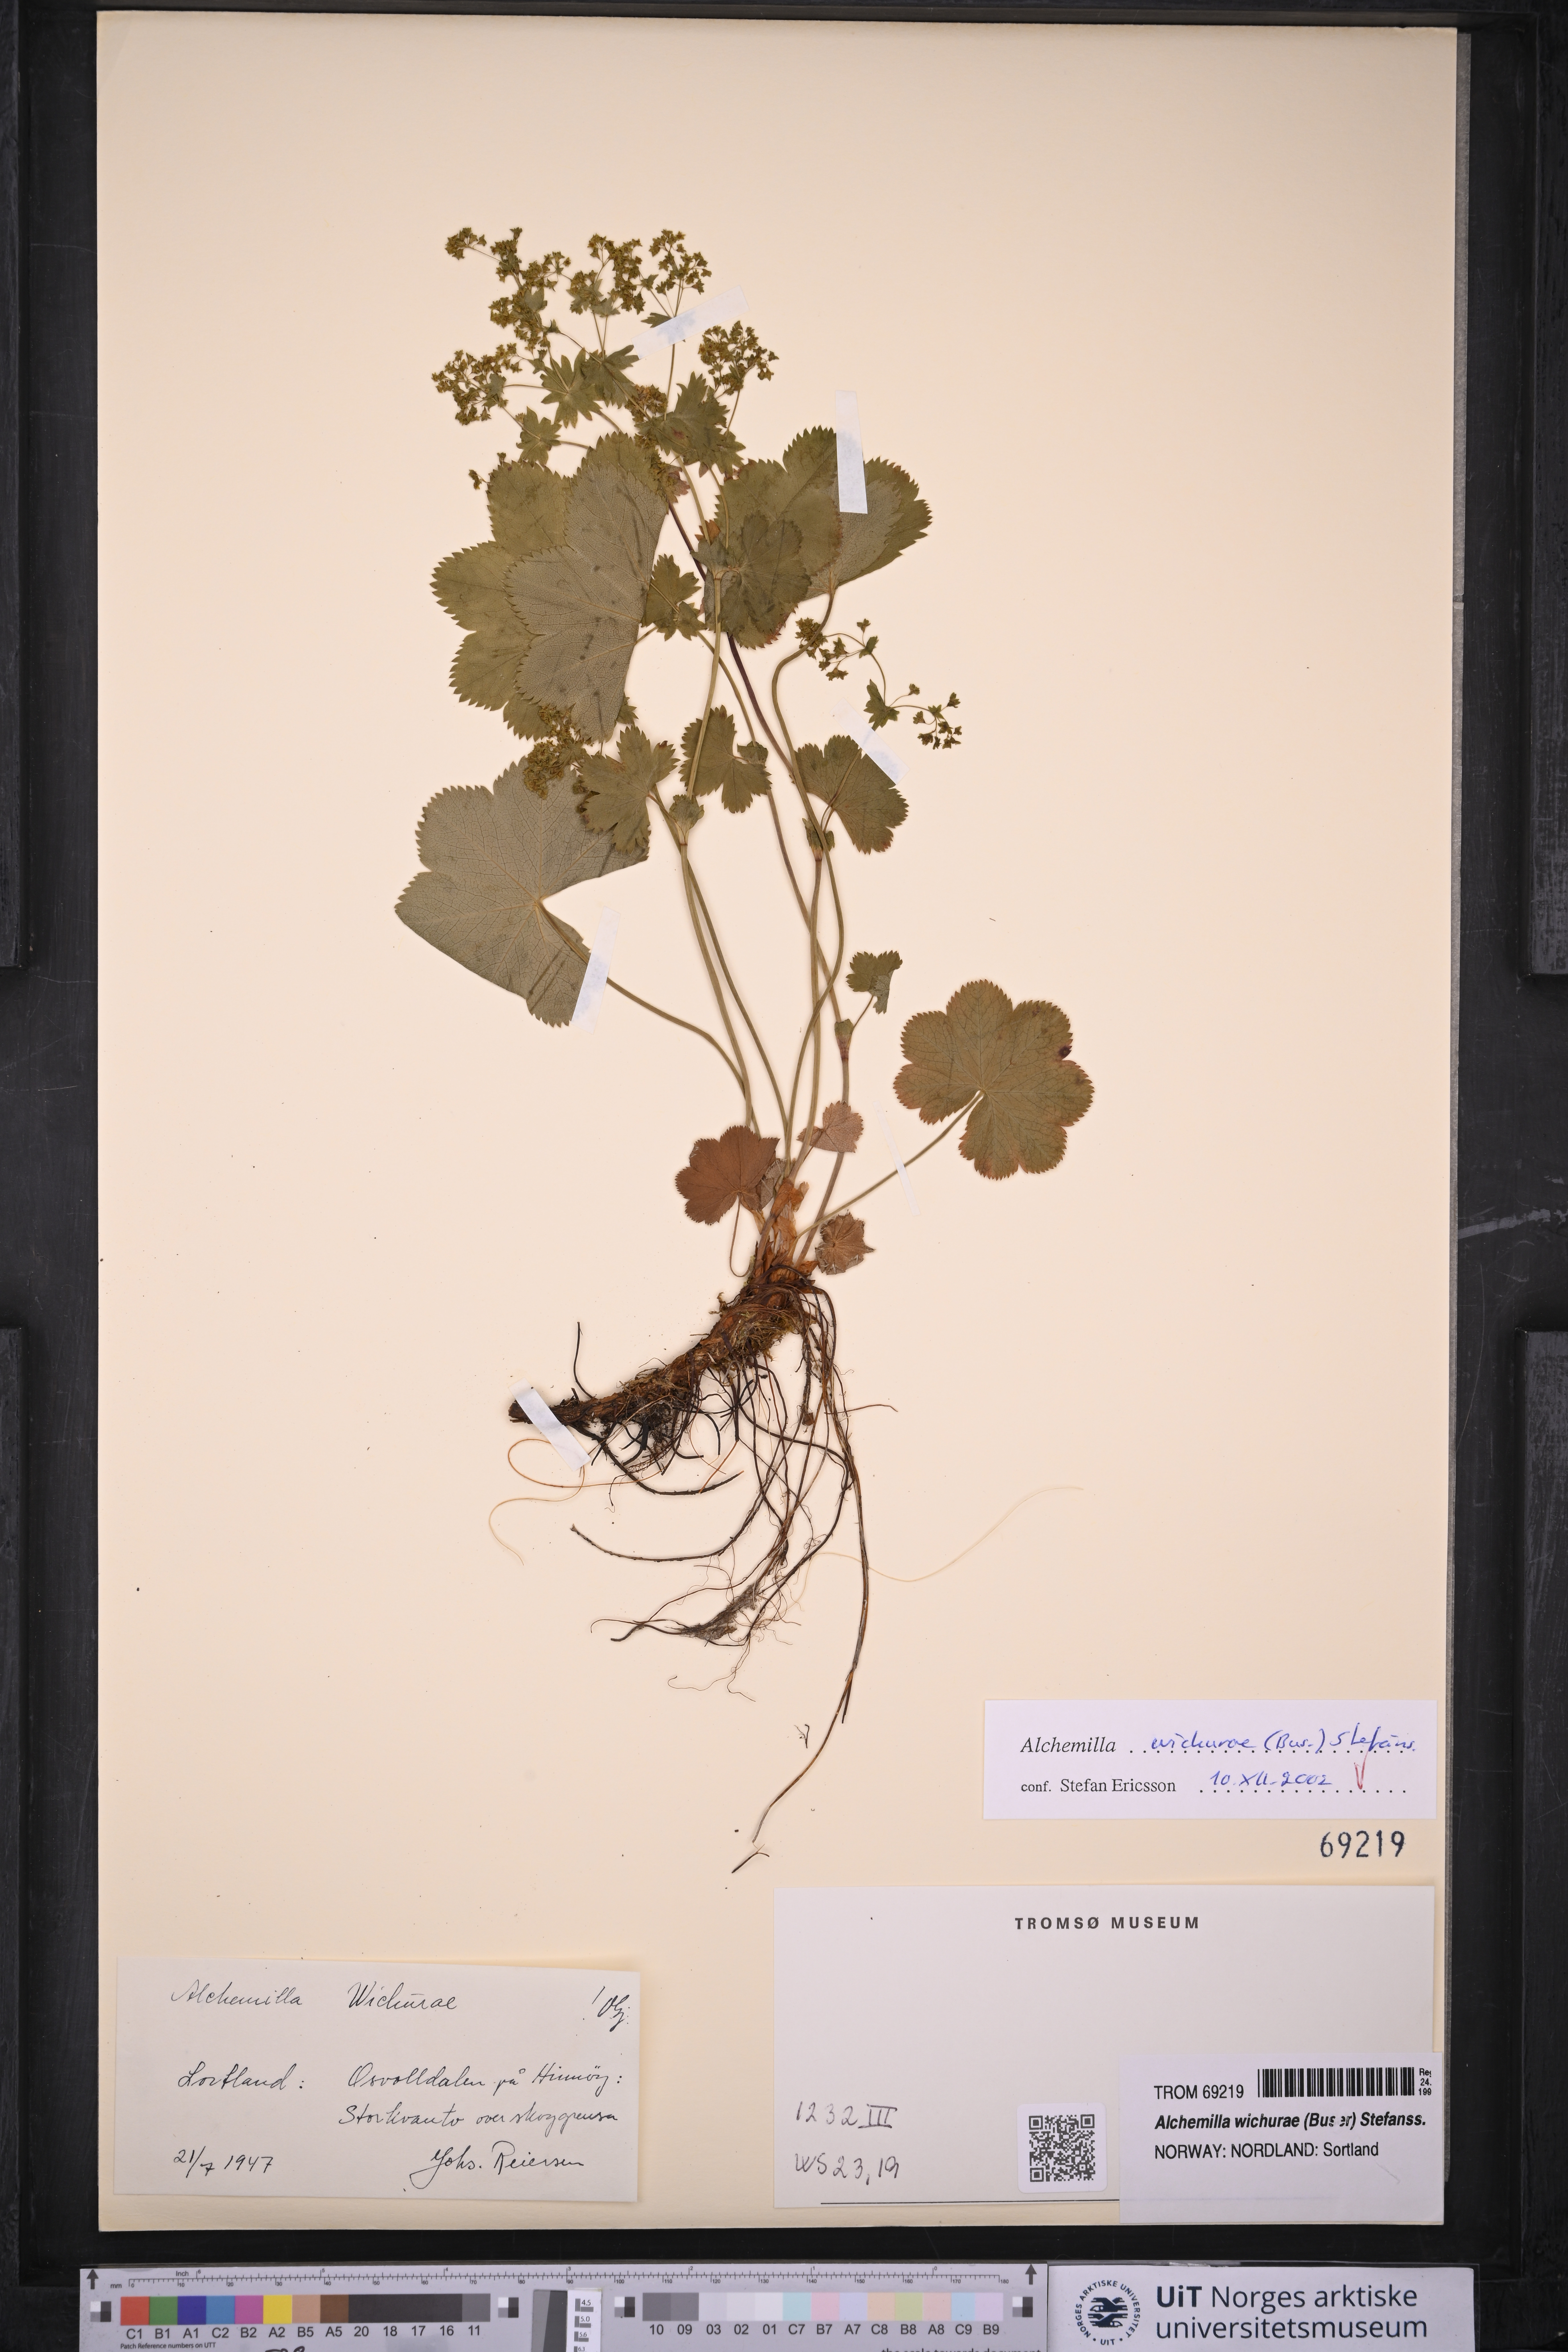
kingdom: Plantae
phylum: Tracheophyta
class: Magnoliopsida
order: Rosales
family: Rosaceae
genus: Alchemilla
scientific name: Alchemilla wichurae
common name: Rock lady's mantle
